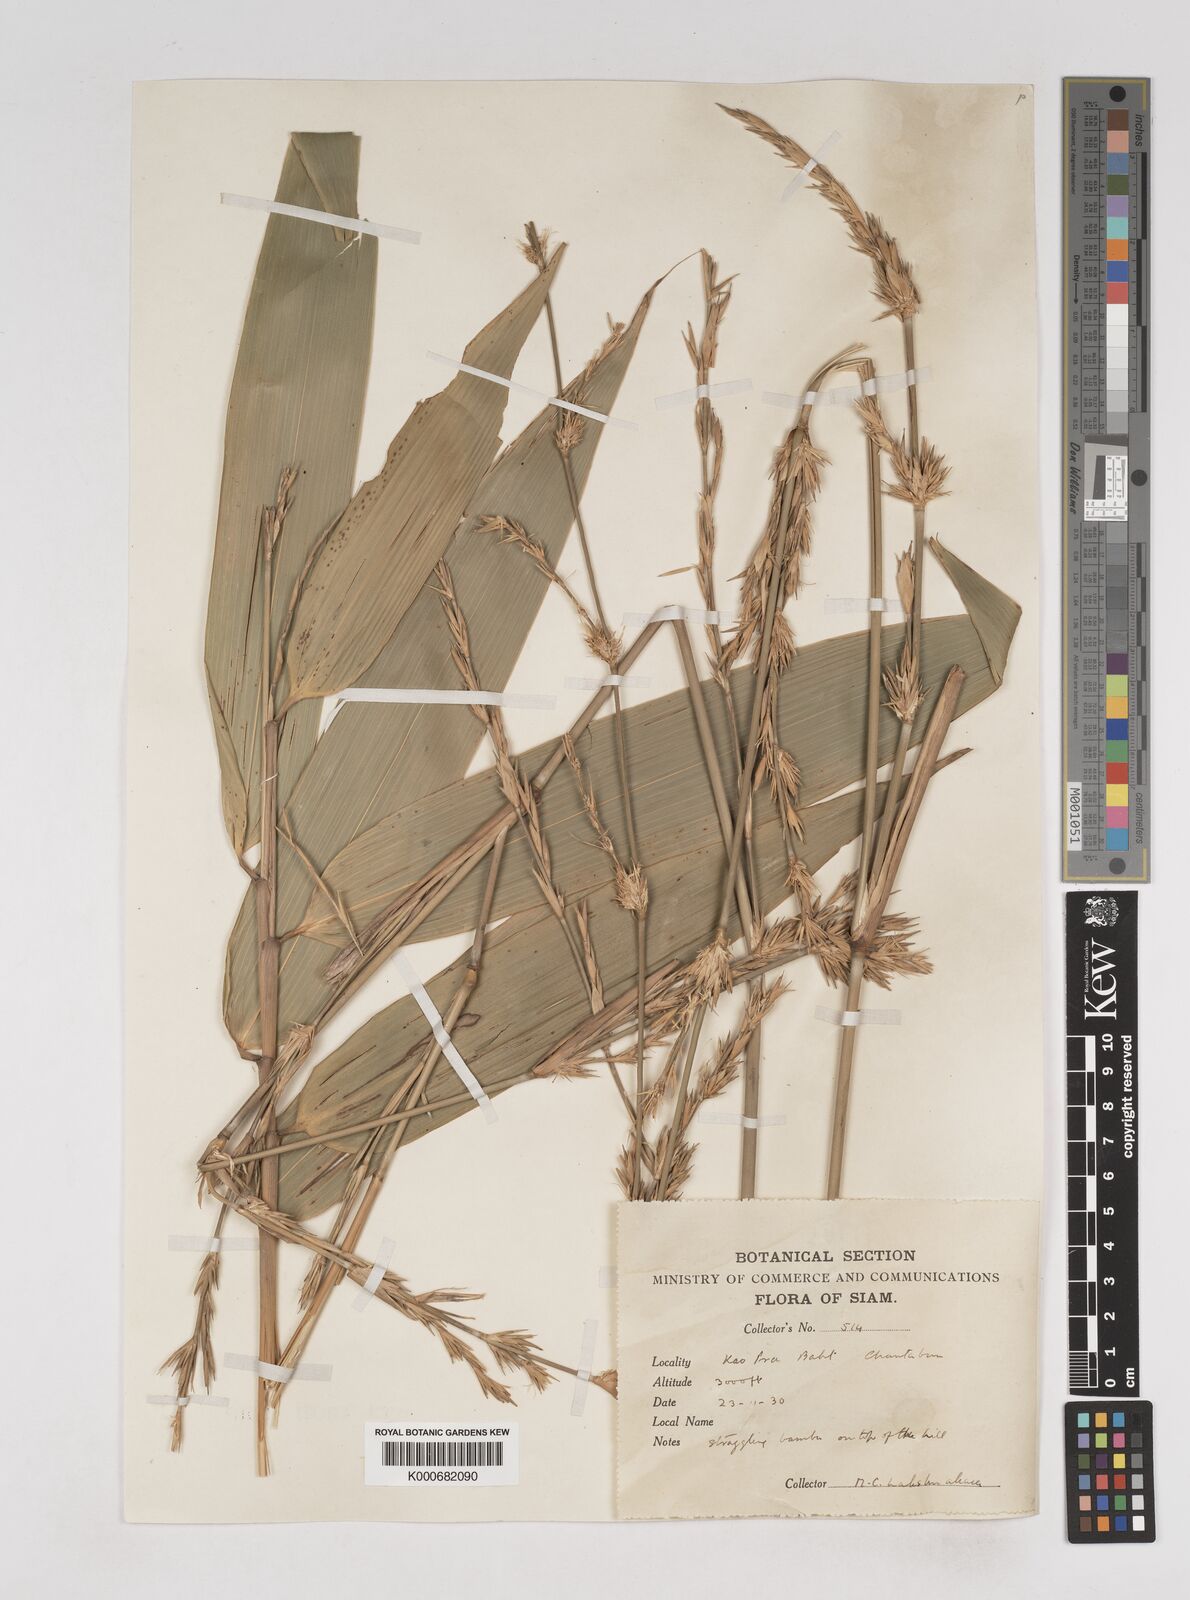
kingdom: Plantae
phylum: Tracheophyta
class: Liliopsida
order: Poales
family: Poaceae
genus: Schizostachyum
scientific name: Schizostachyum
